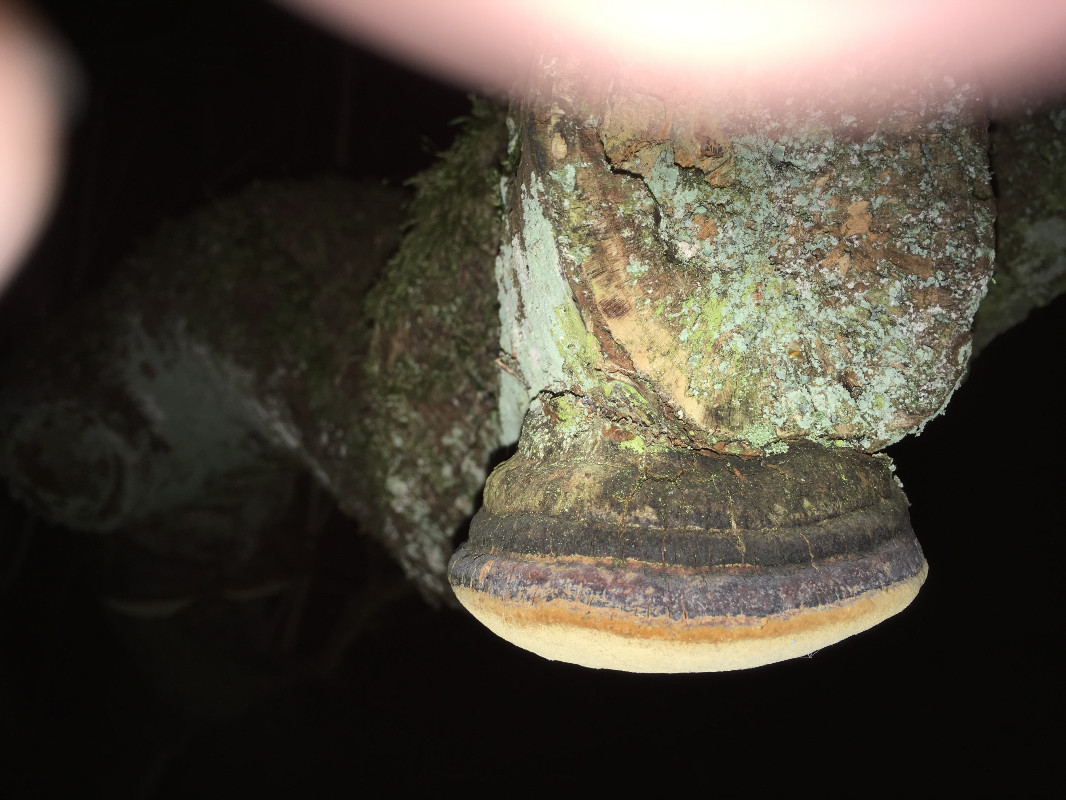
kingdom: Fungi
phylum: Basidiomycota
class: Agaricomycetes
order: Hymenochaetales
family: Hymenochaetaceae
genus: Phellinus
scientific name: Phellinus pomaceus
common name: blomme-ildporesvamp
